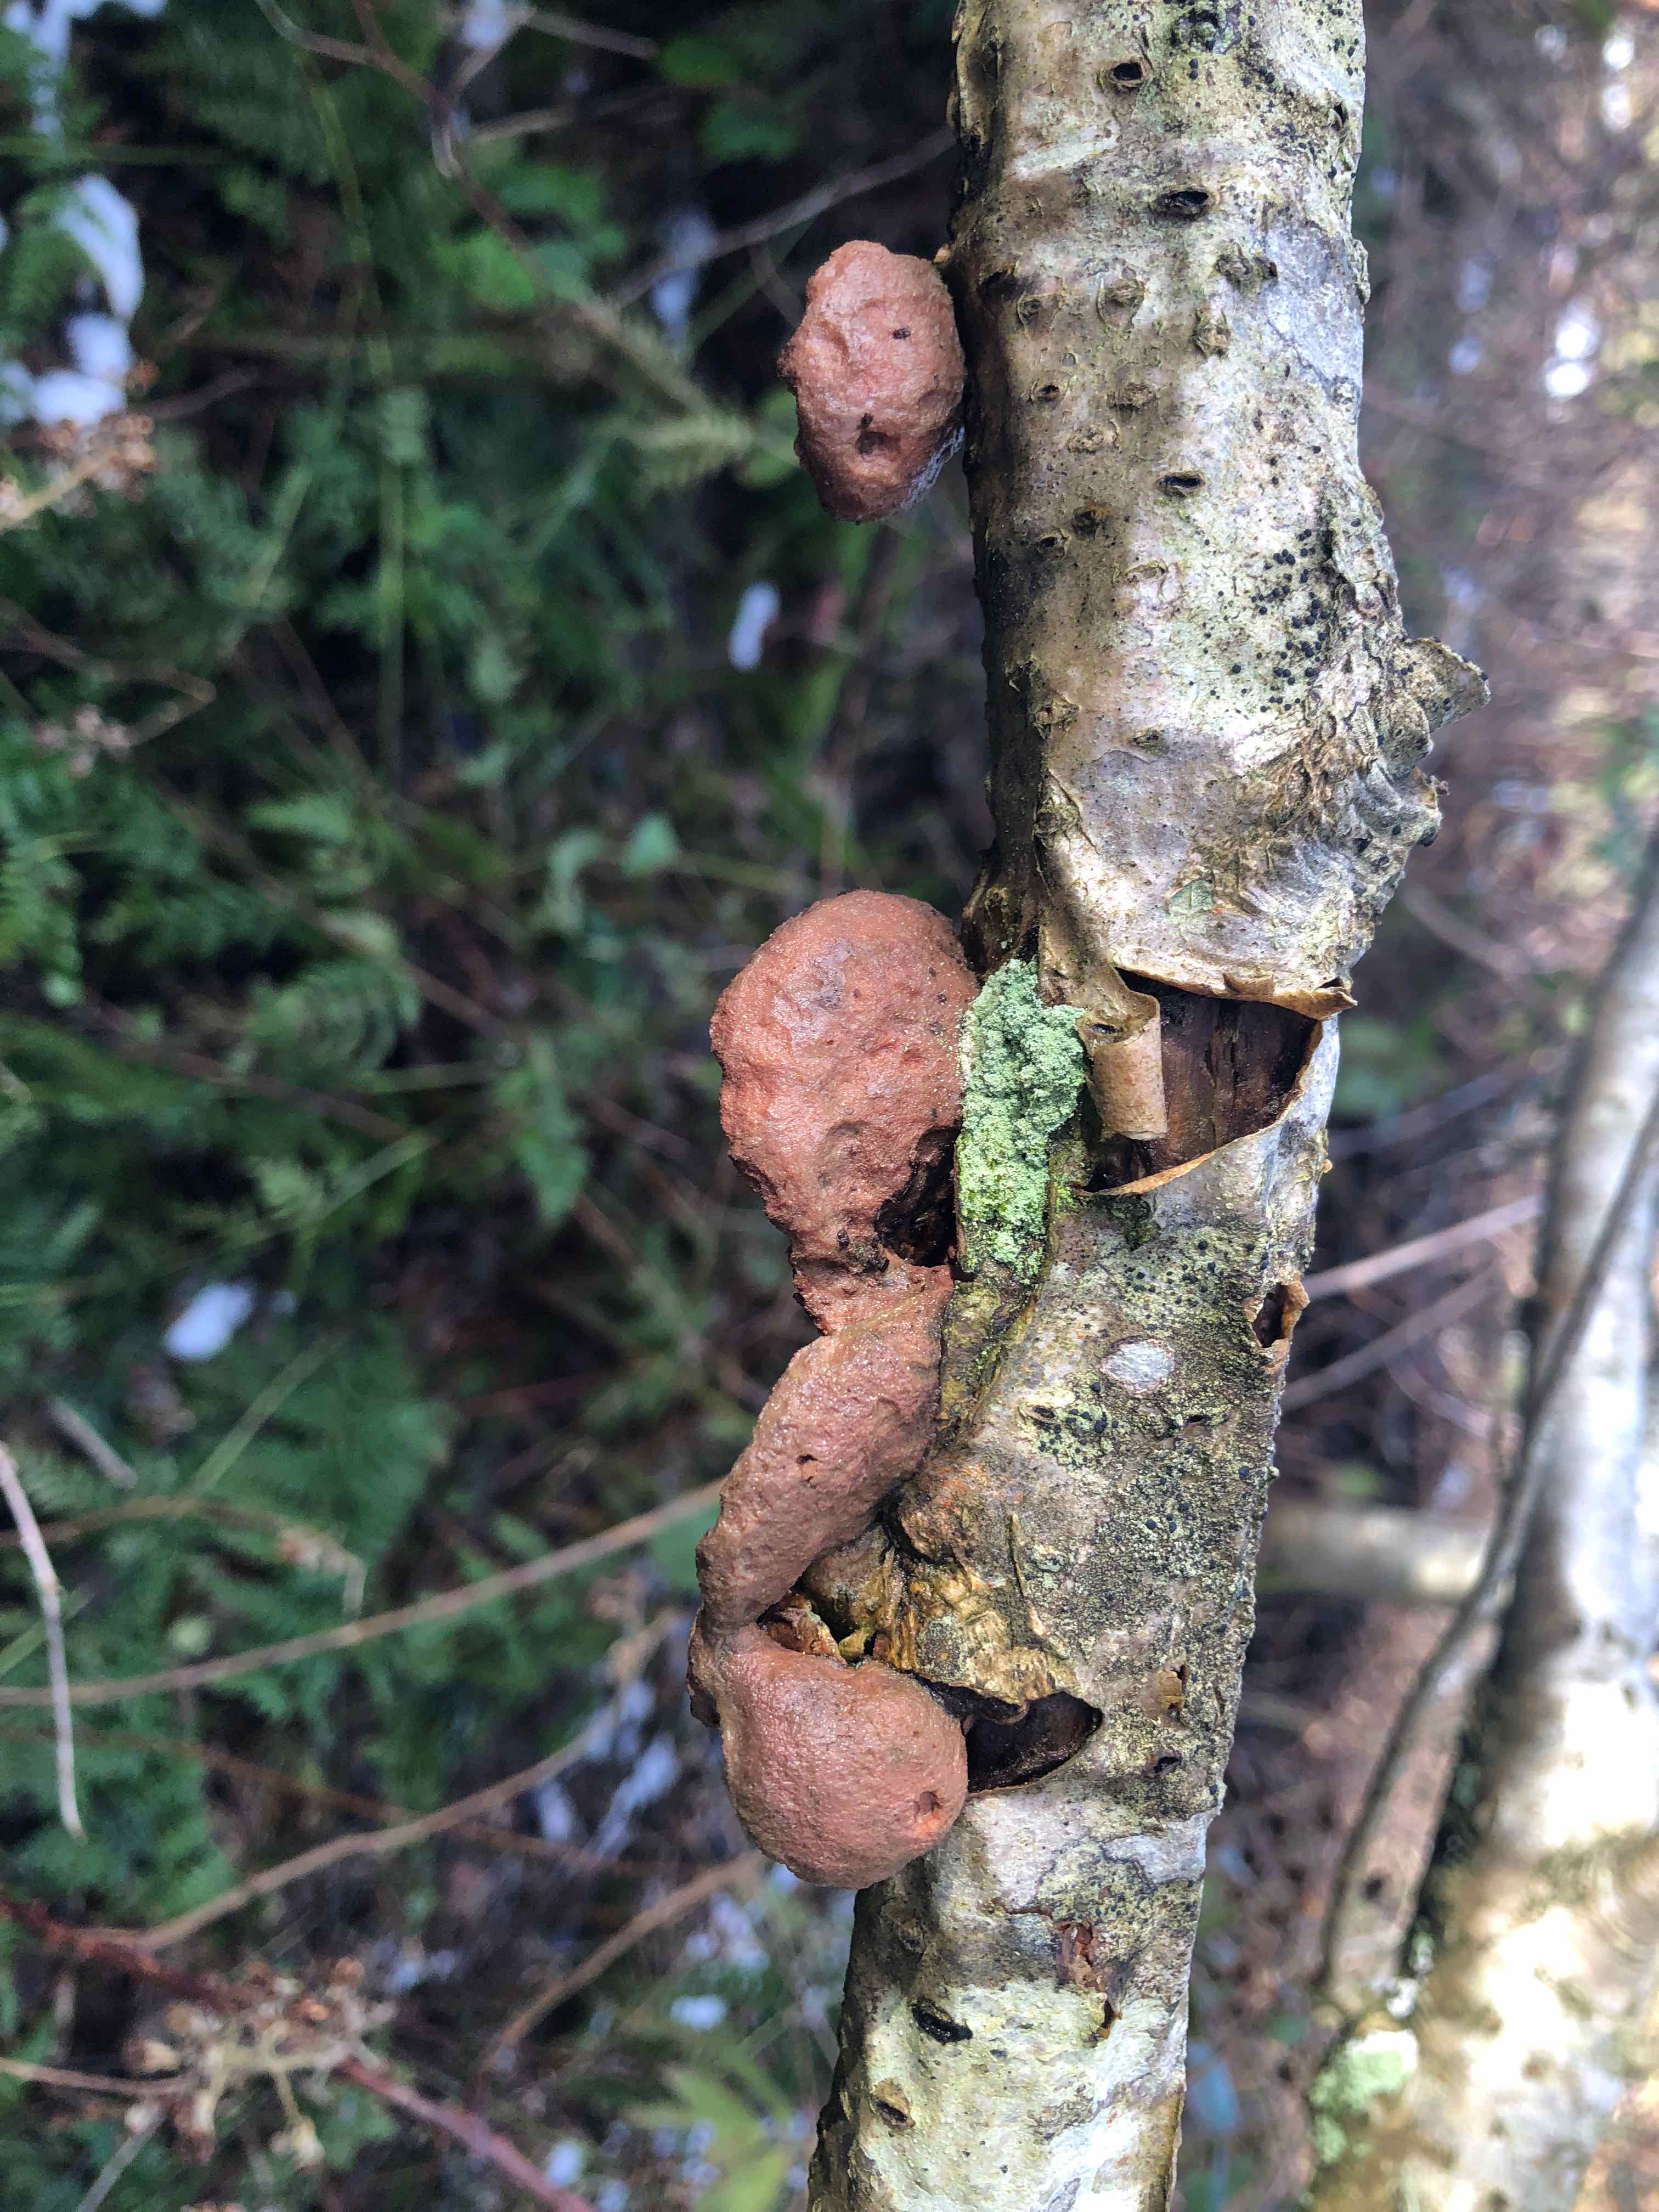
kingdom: Fungi
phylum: Basidiomycota
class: Agaricomycetes
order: Polyporales
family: Phanerochaetaceae
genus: Hapalopilus
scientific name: Hapalopilus rutilans
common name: rødlig okkerporesvamp
